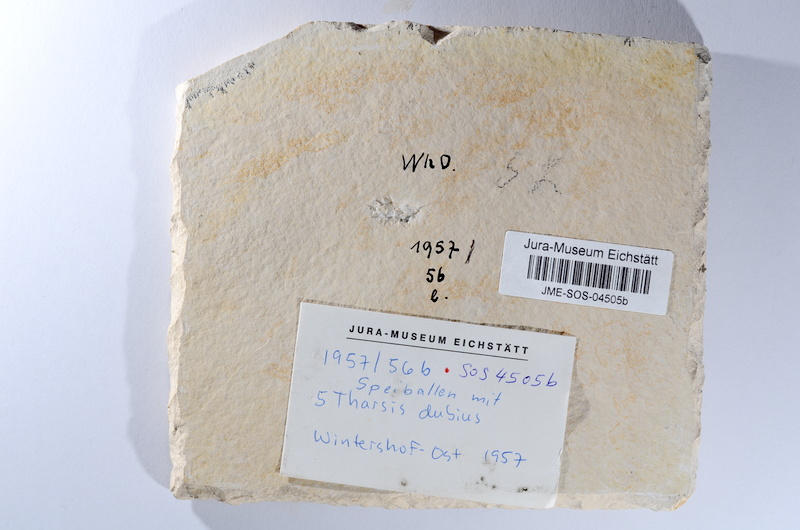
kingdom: Animalia
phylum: Chordata
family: Ascalaboidae
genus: Tharsis
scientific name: Tharsis dubius
